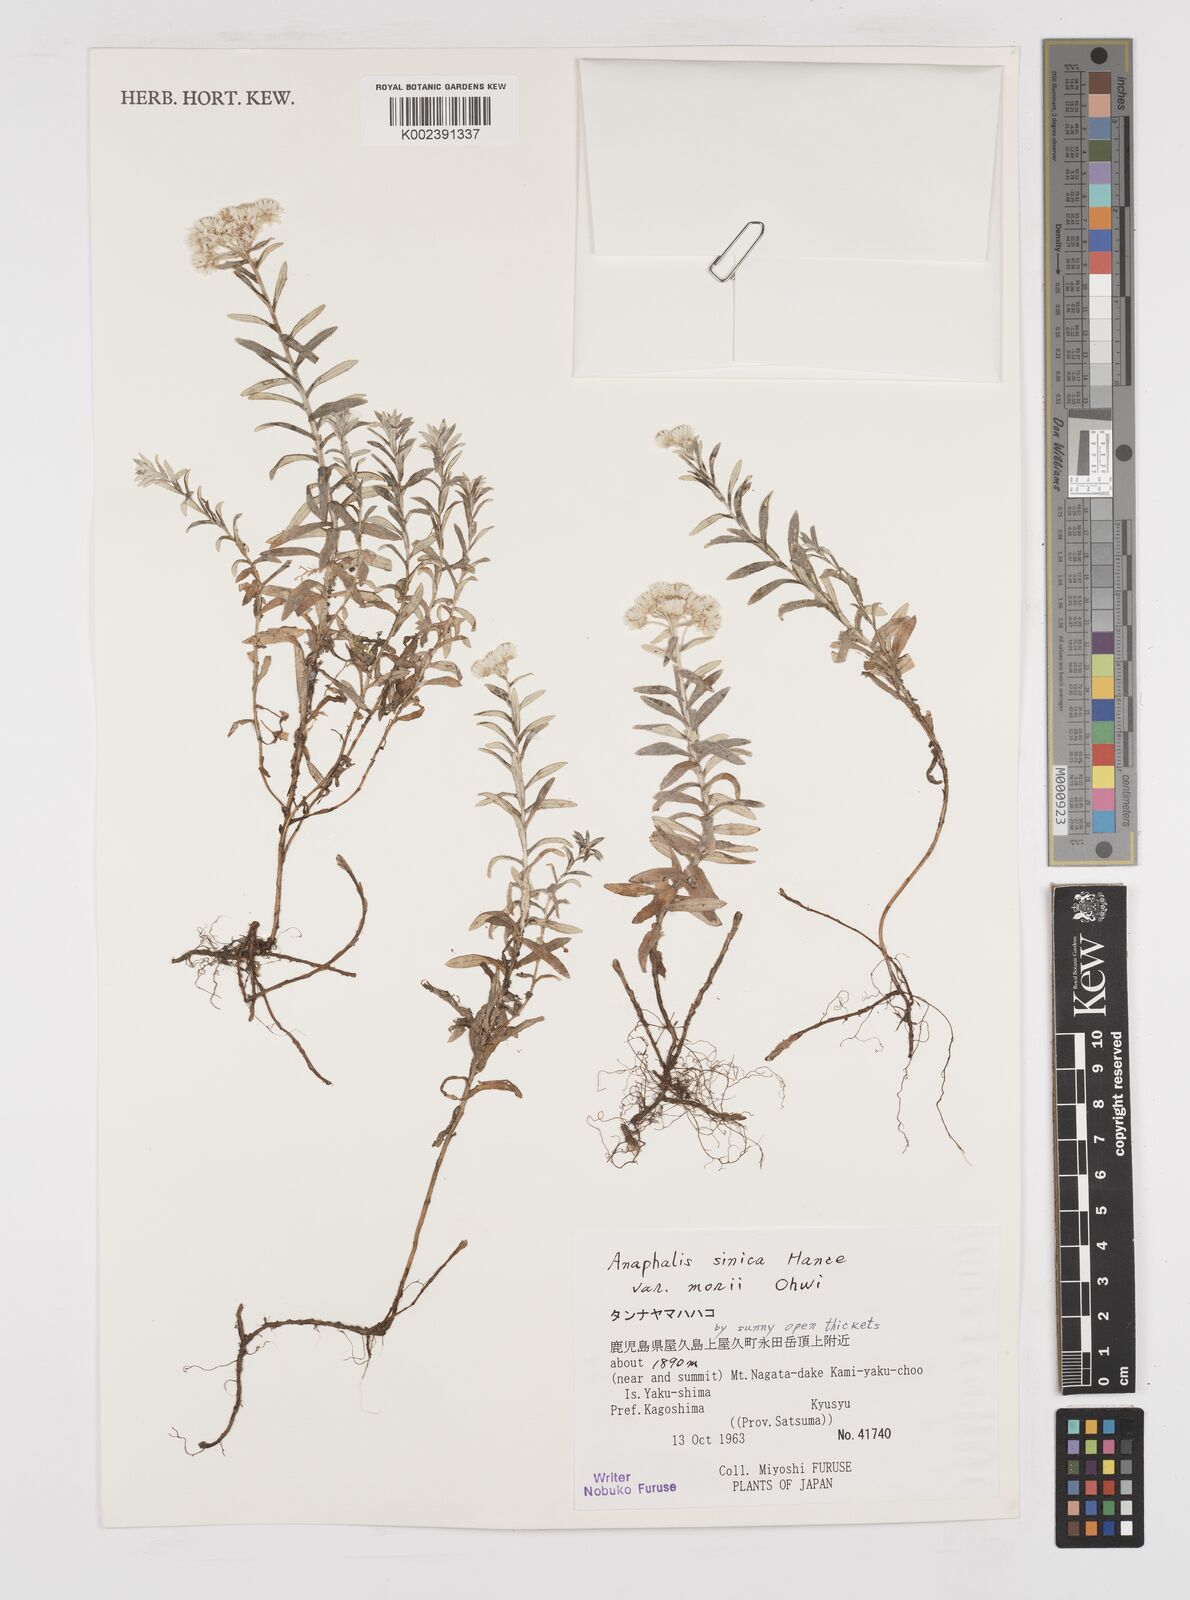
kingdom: Plantae
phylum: Tracheophyta
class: Magnoliopsida
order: Asterales
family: Asteraceae
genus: Anaphalis
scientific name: Anaphalis sinica
